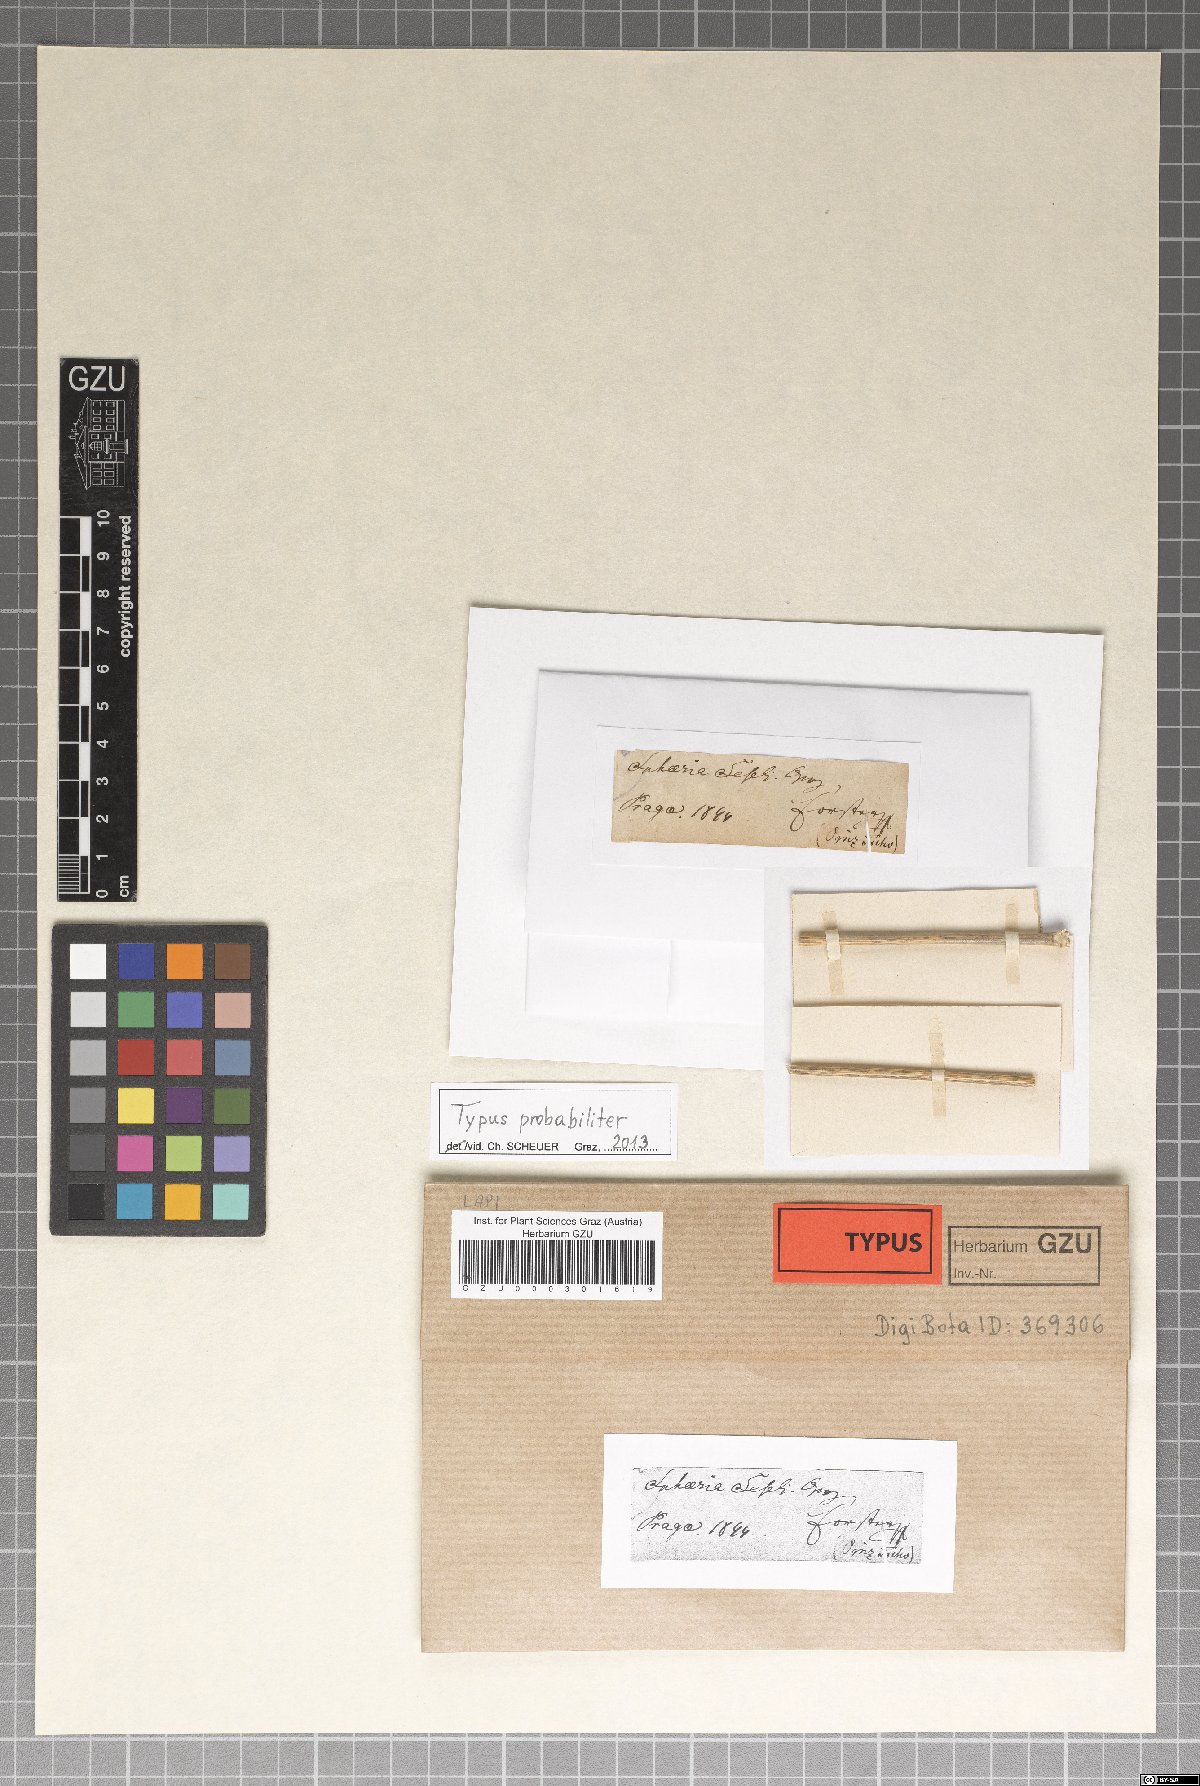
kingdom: Fungi
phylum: Ascomycota
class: Sordariomycetes
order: Xylariales
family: Xylariaceae
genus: Sphaeria
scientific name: Sphaeria
